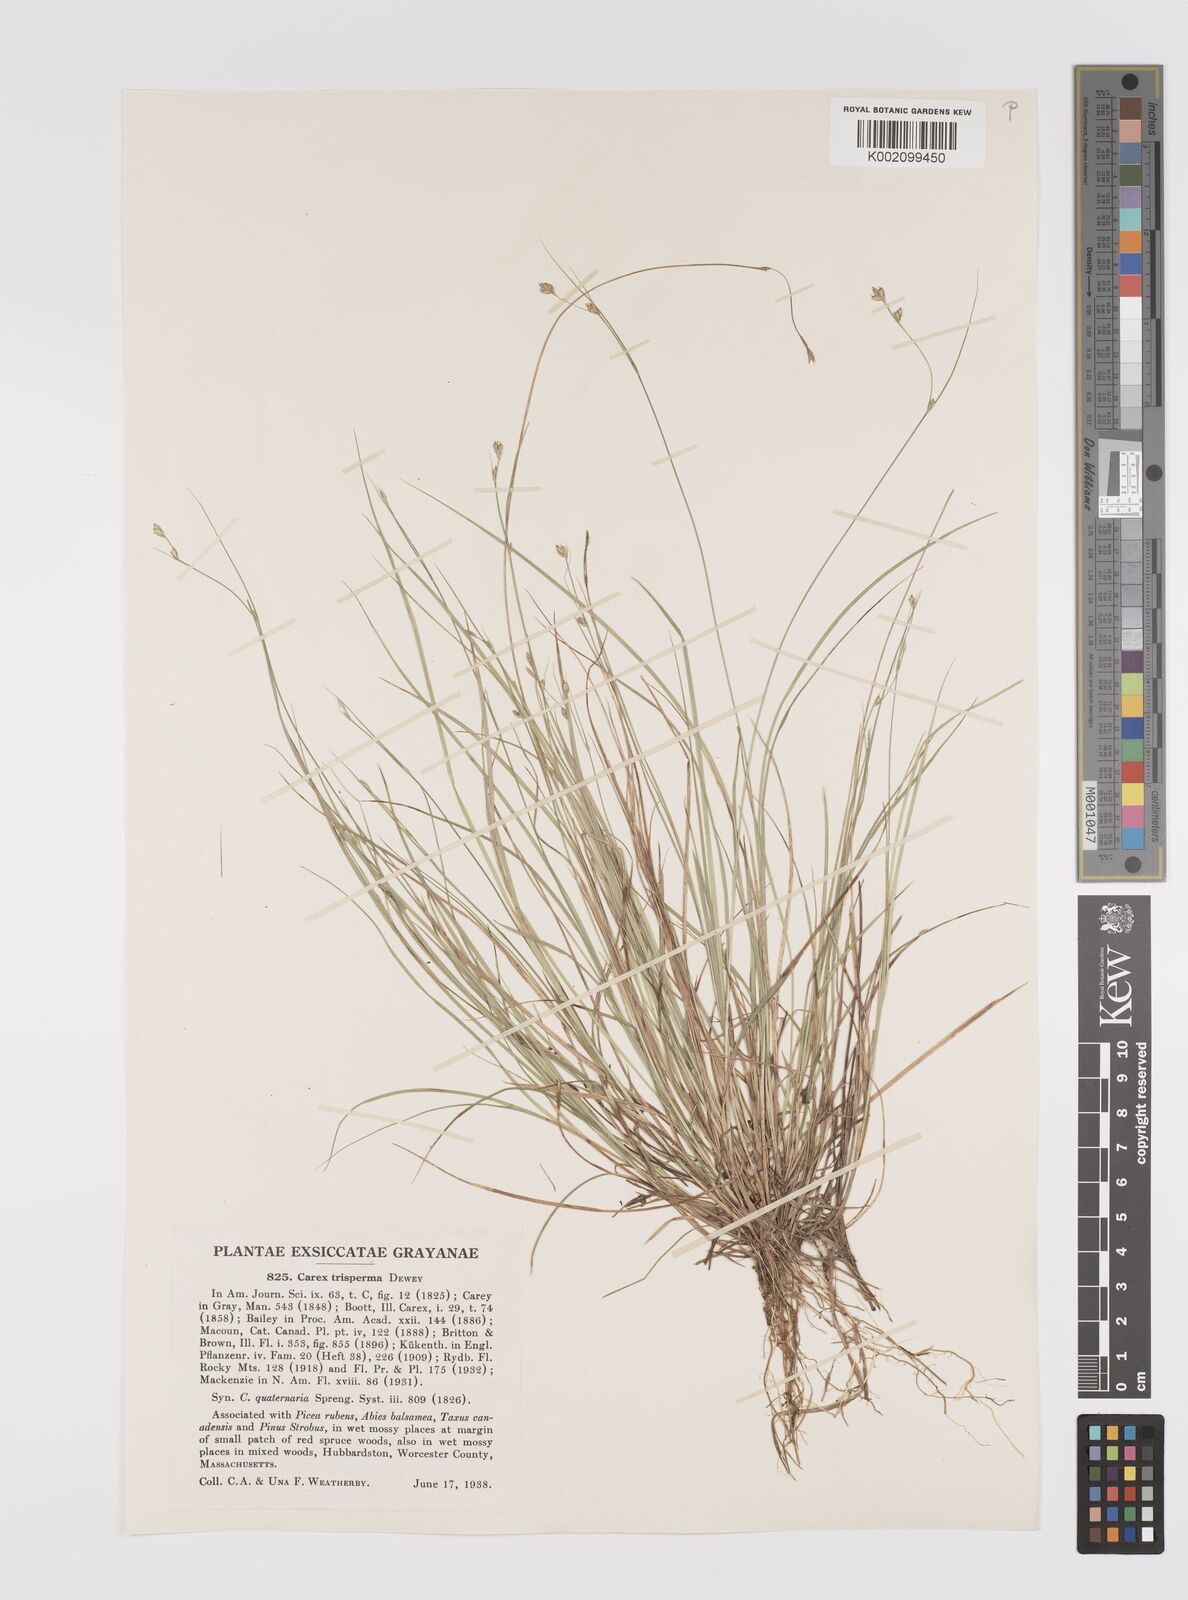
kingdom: Plantae
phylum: Tracheophyta
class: Liliopsida
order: Poales
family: Cyperaceae
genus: Carex
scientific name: Carex trisperma
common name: Three-seeded sedge
